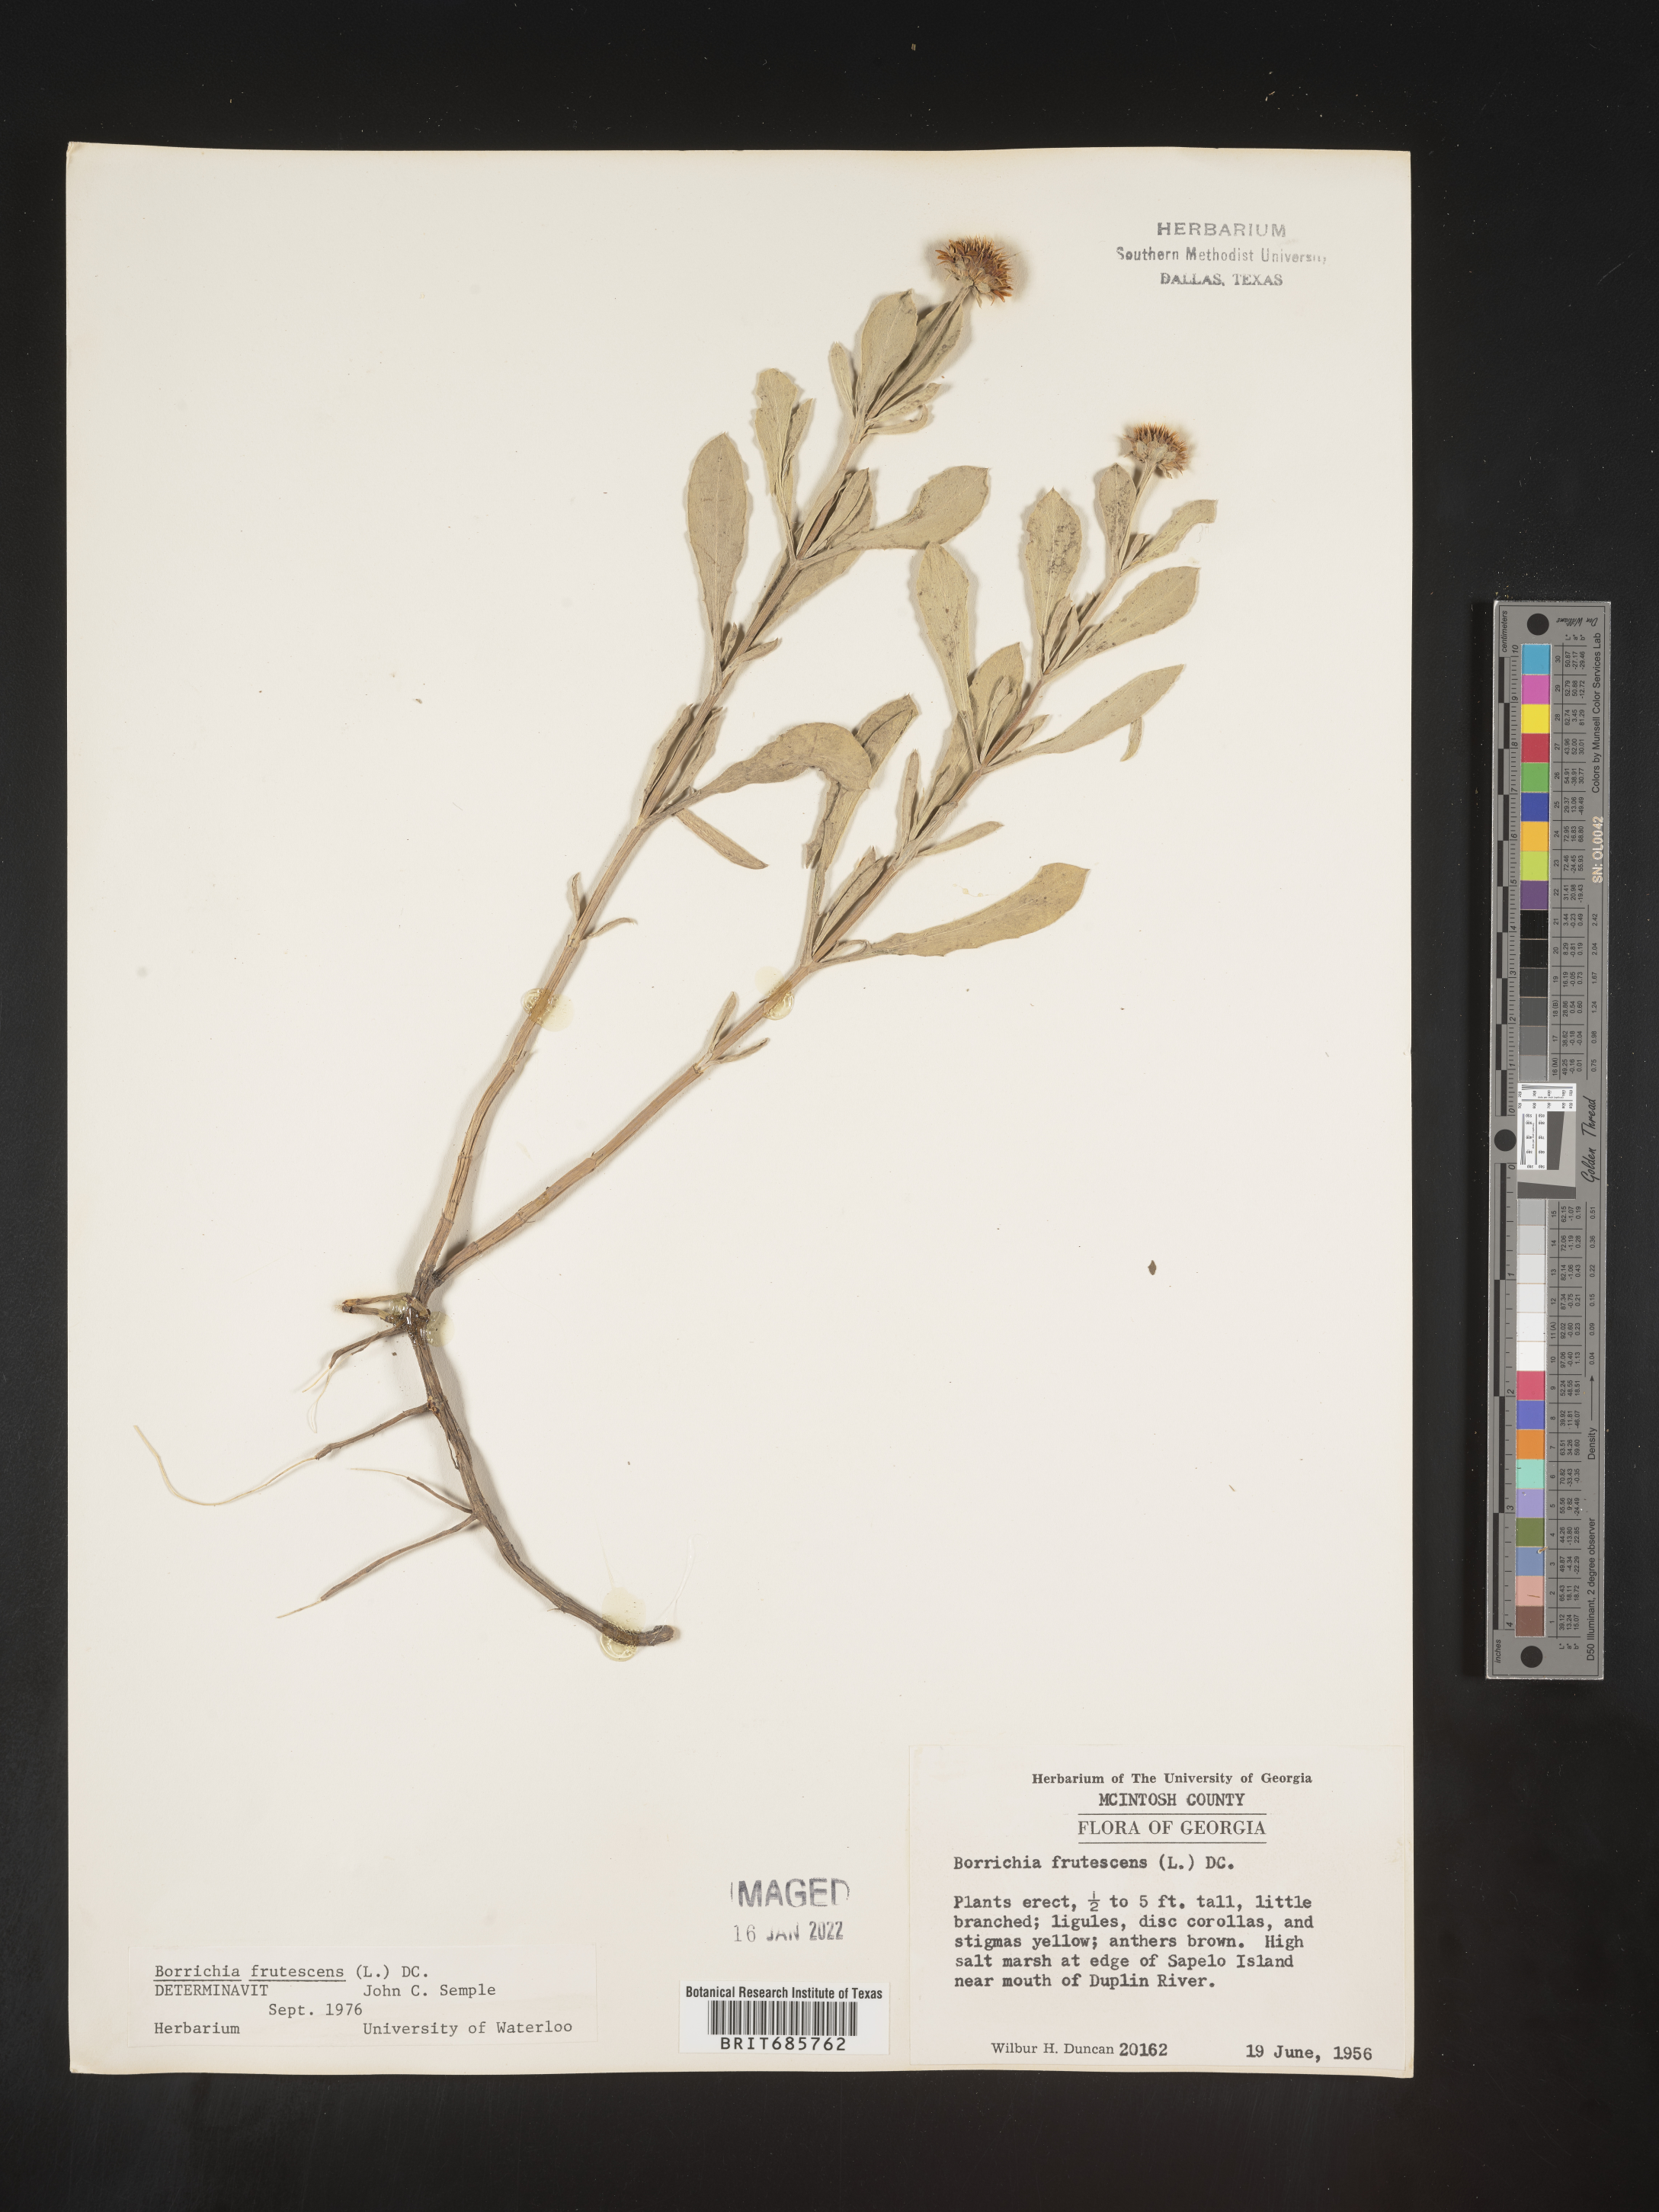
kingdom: Plantae
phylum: Tracheophyta
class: Magnoliopsida
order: Asterales
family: Asteraceae
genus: Borrichia
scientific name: Borrichia frutescens
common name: Sea oxeye
